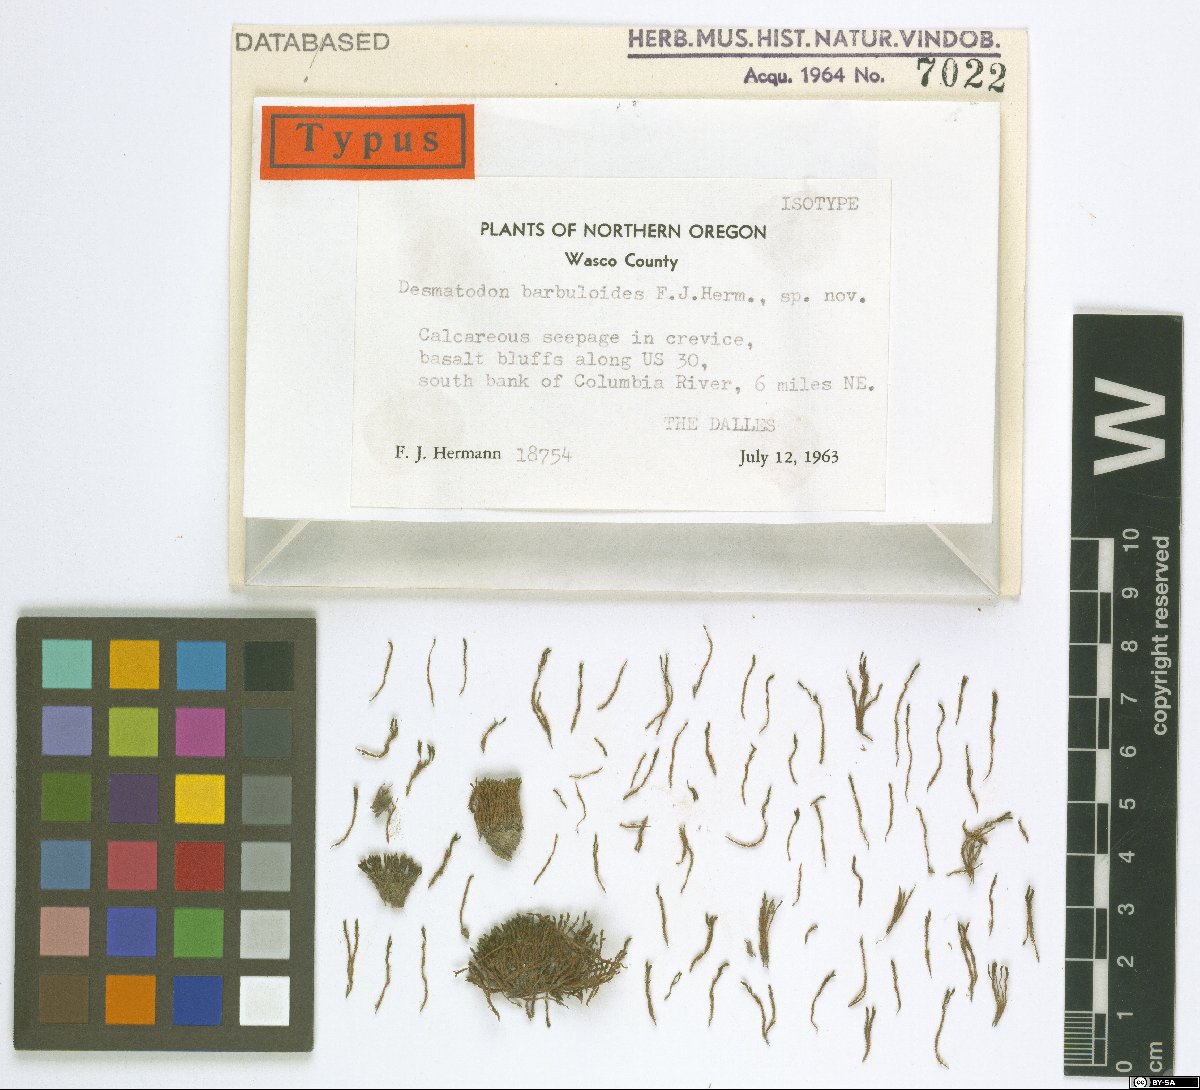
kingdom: Animalia
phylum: Chordata
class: Amphibia
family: Diadectidae
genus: Desmatodon
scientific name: Desmatodon
